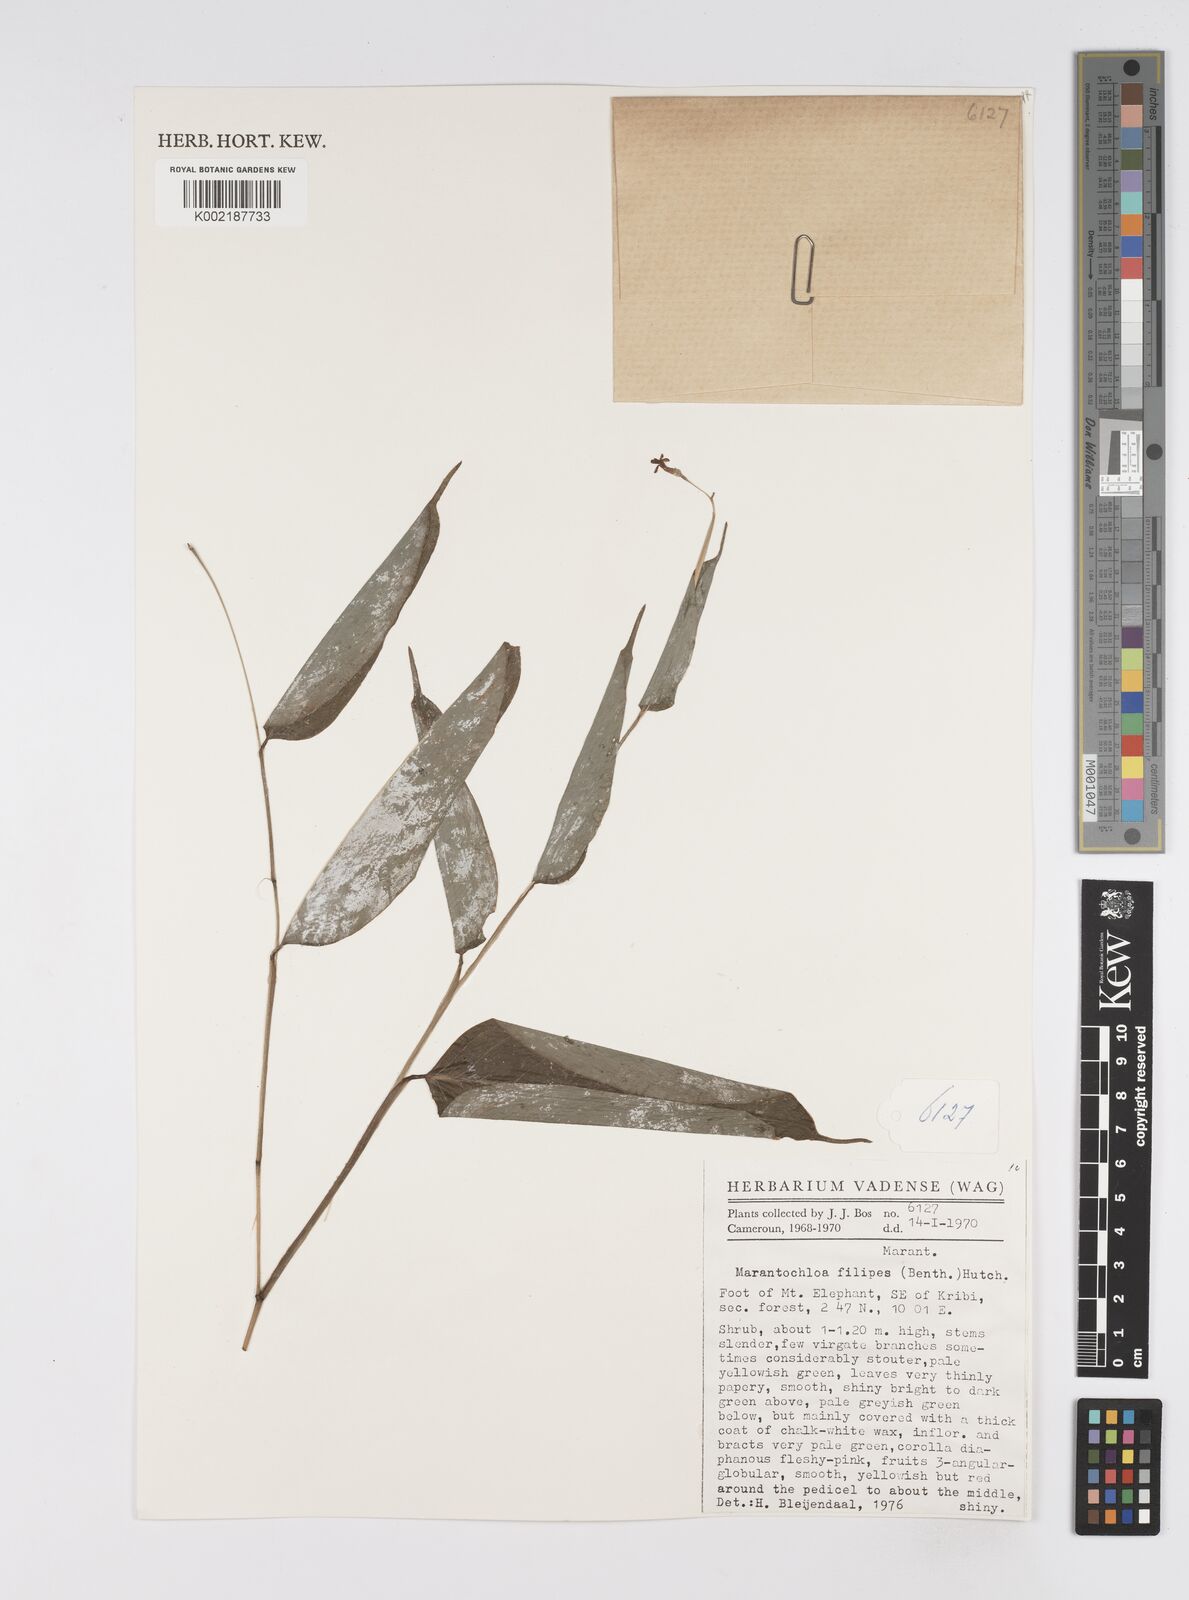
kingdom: Plantae
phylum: Tracheophyta
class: Liliopsida
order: Zingiberales
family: Marantaceae
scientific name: Marantaceae
